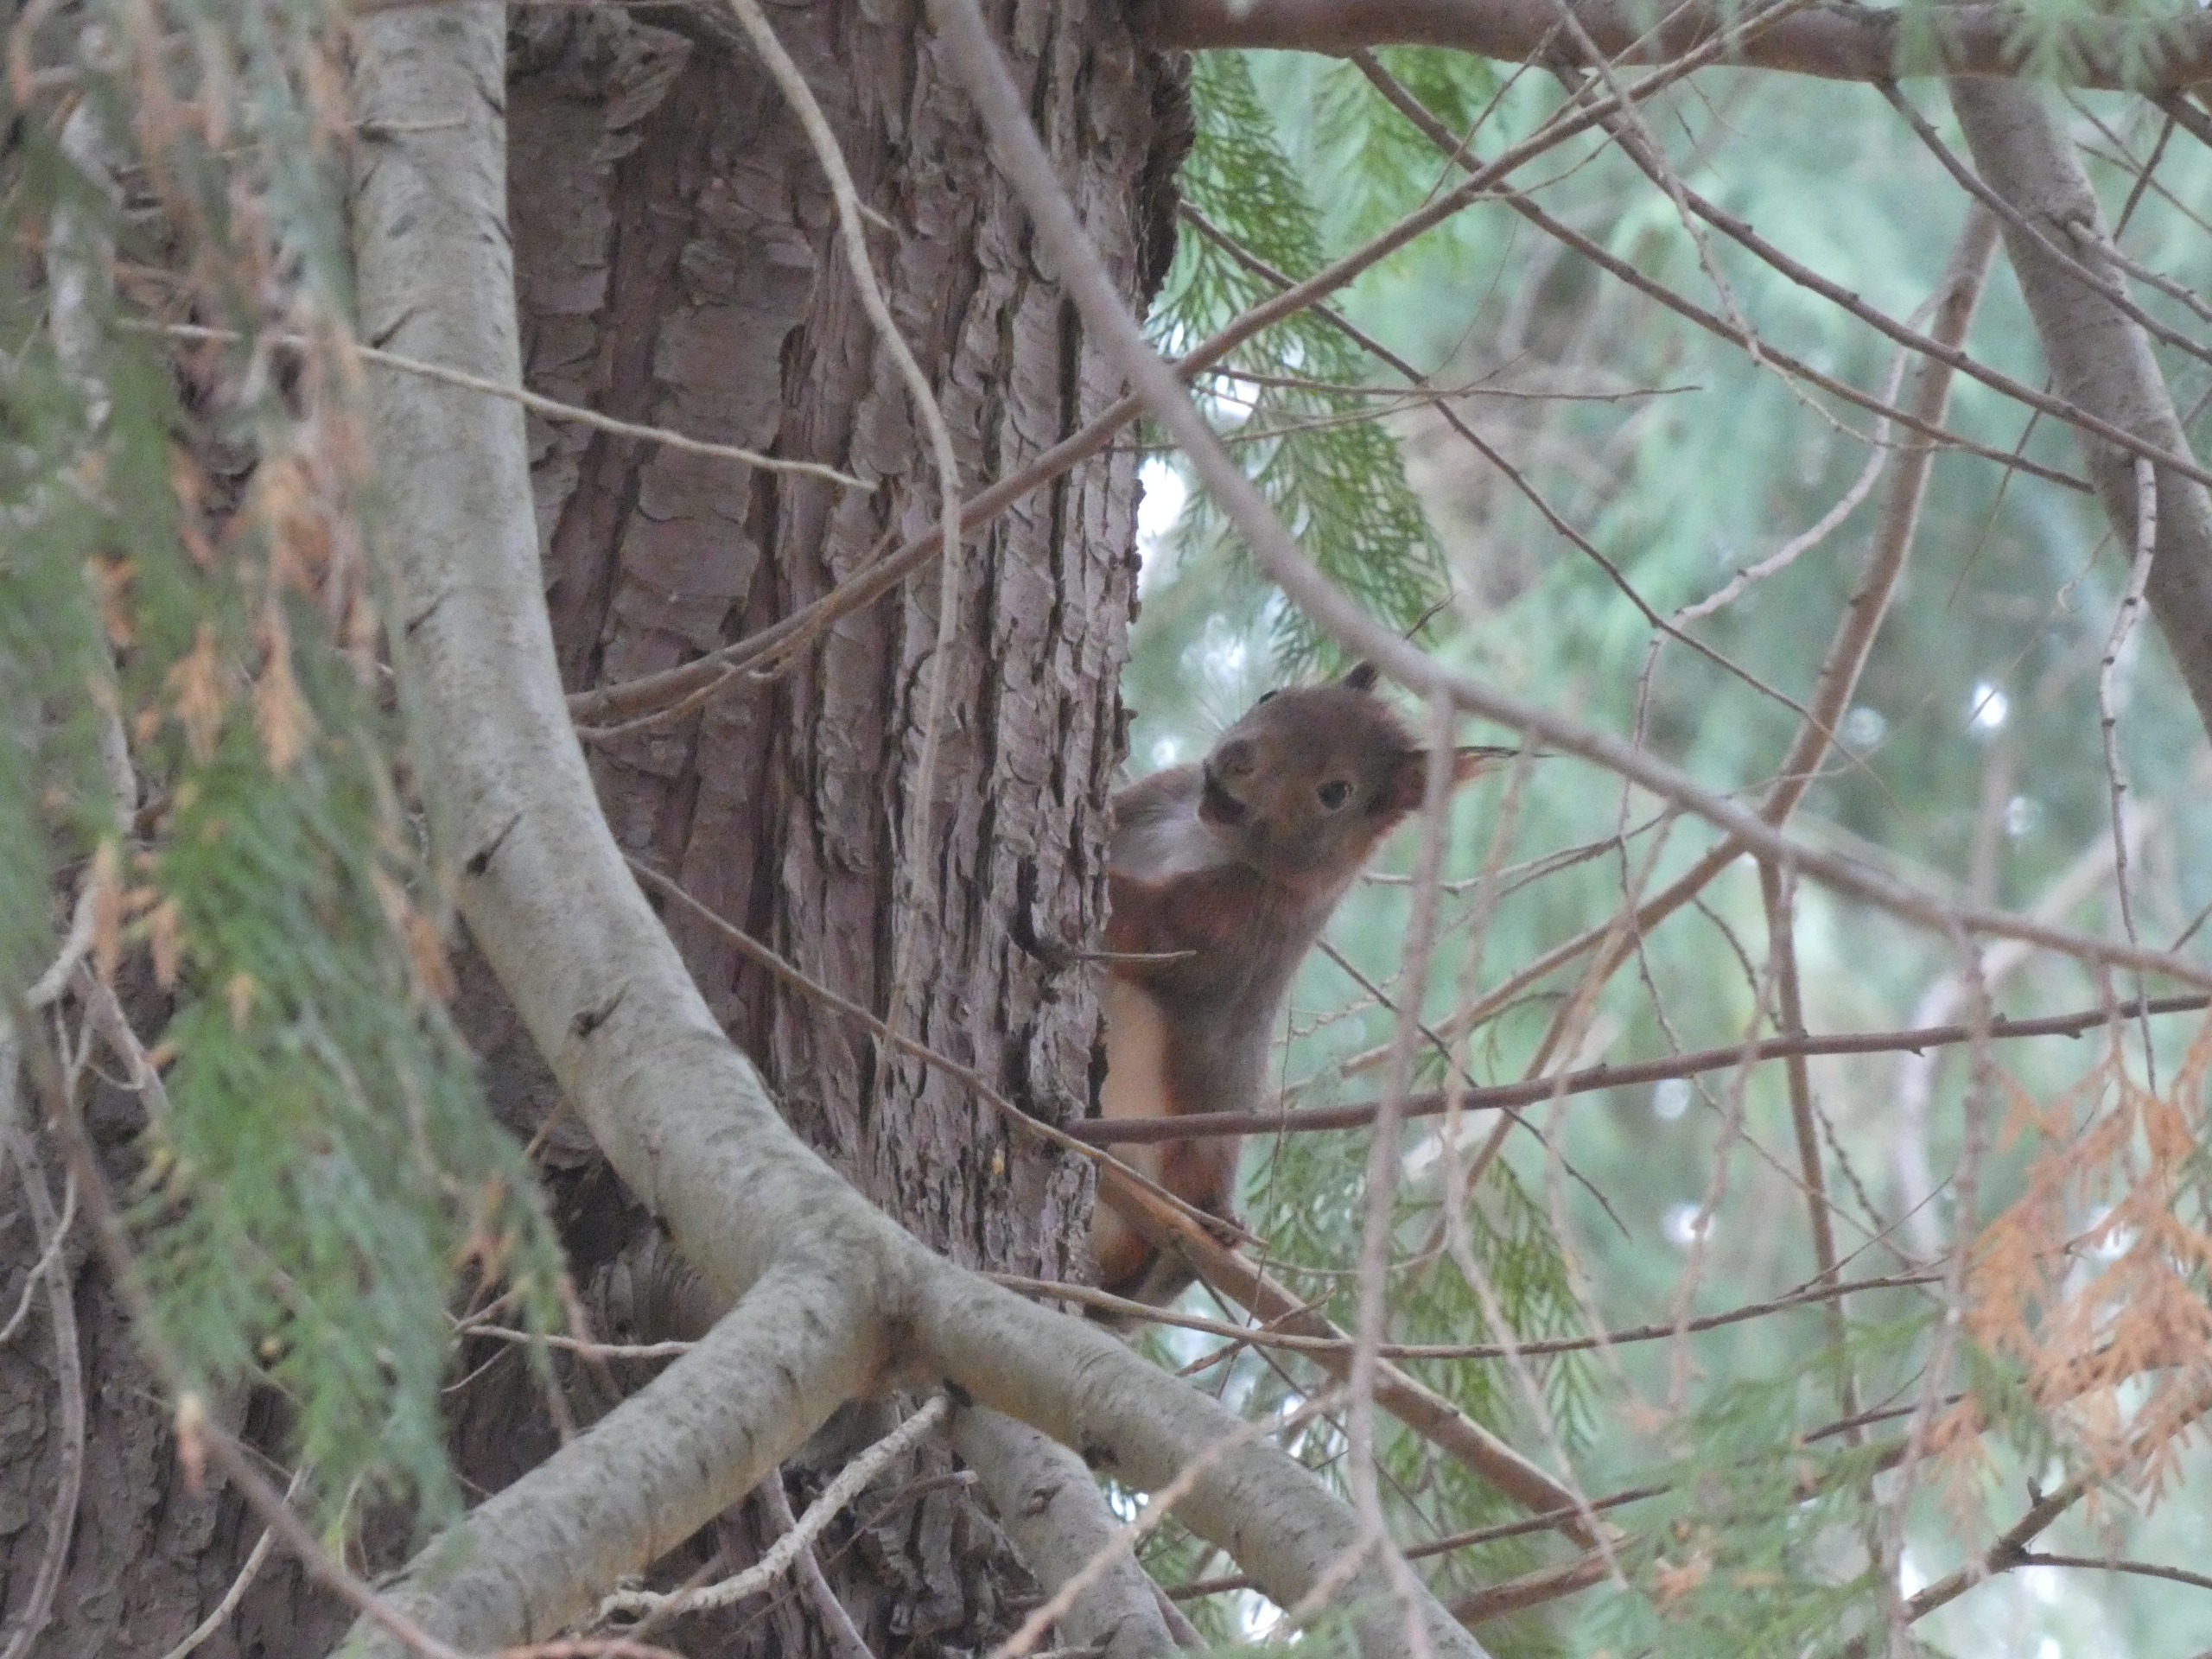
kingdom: Animalia
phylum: Chordata
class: Mammalia
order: Rodentia
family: Sciuridae
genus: Sciurus
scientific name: Sciurus vulgaris
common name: Egern
